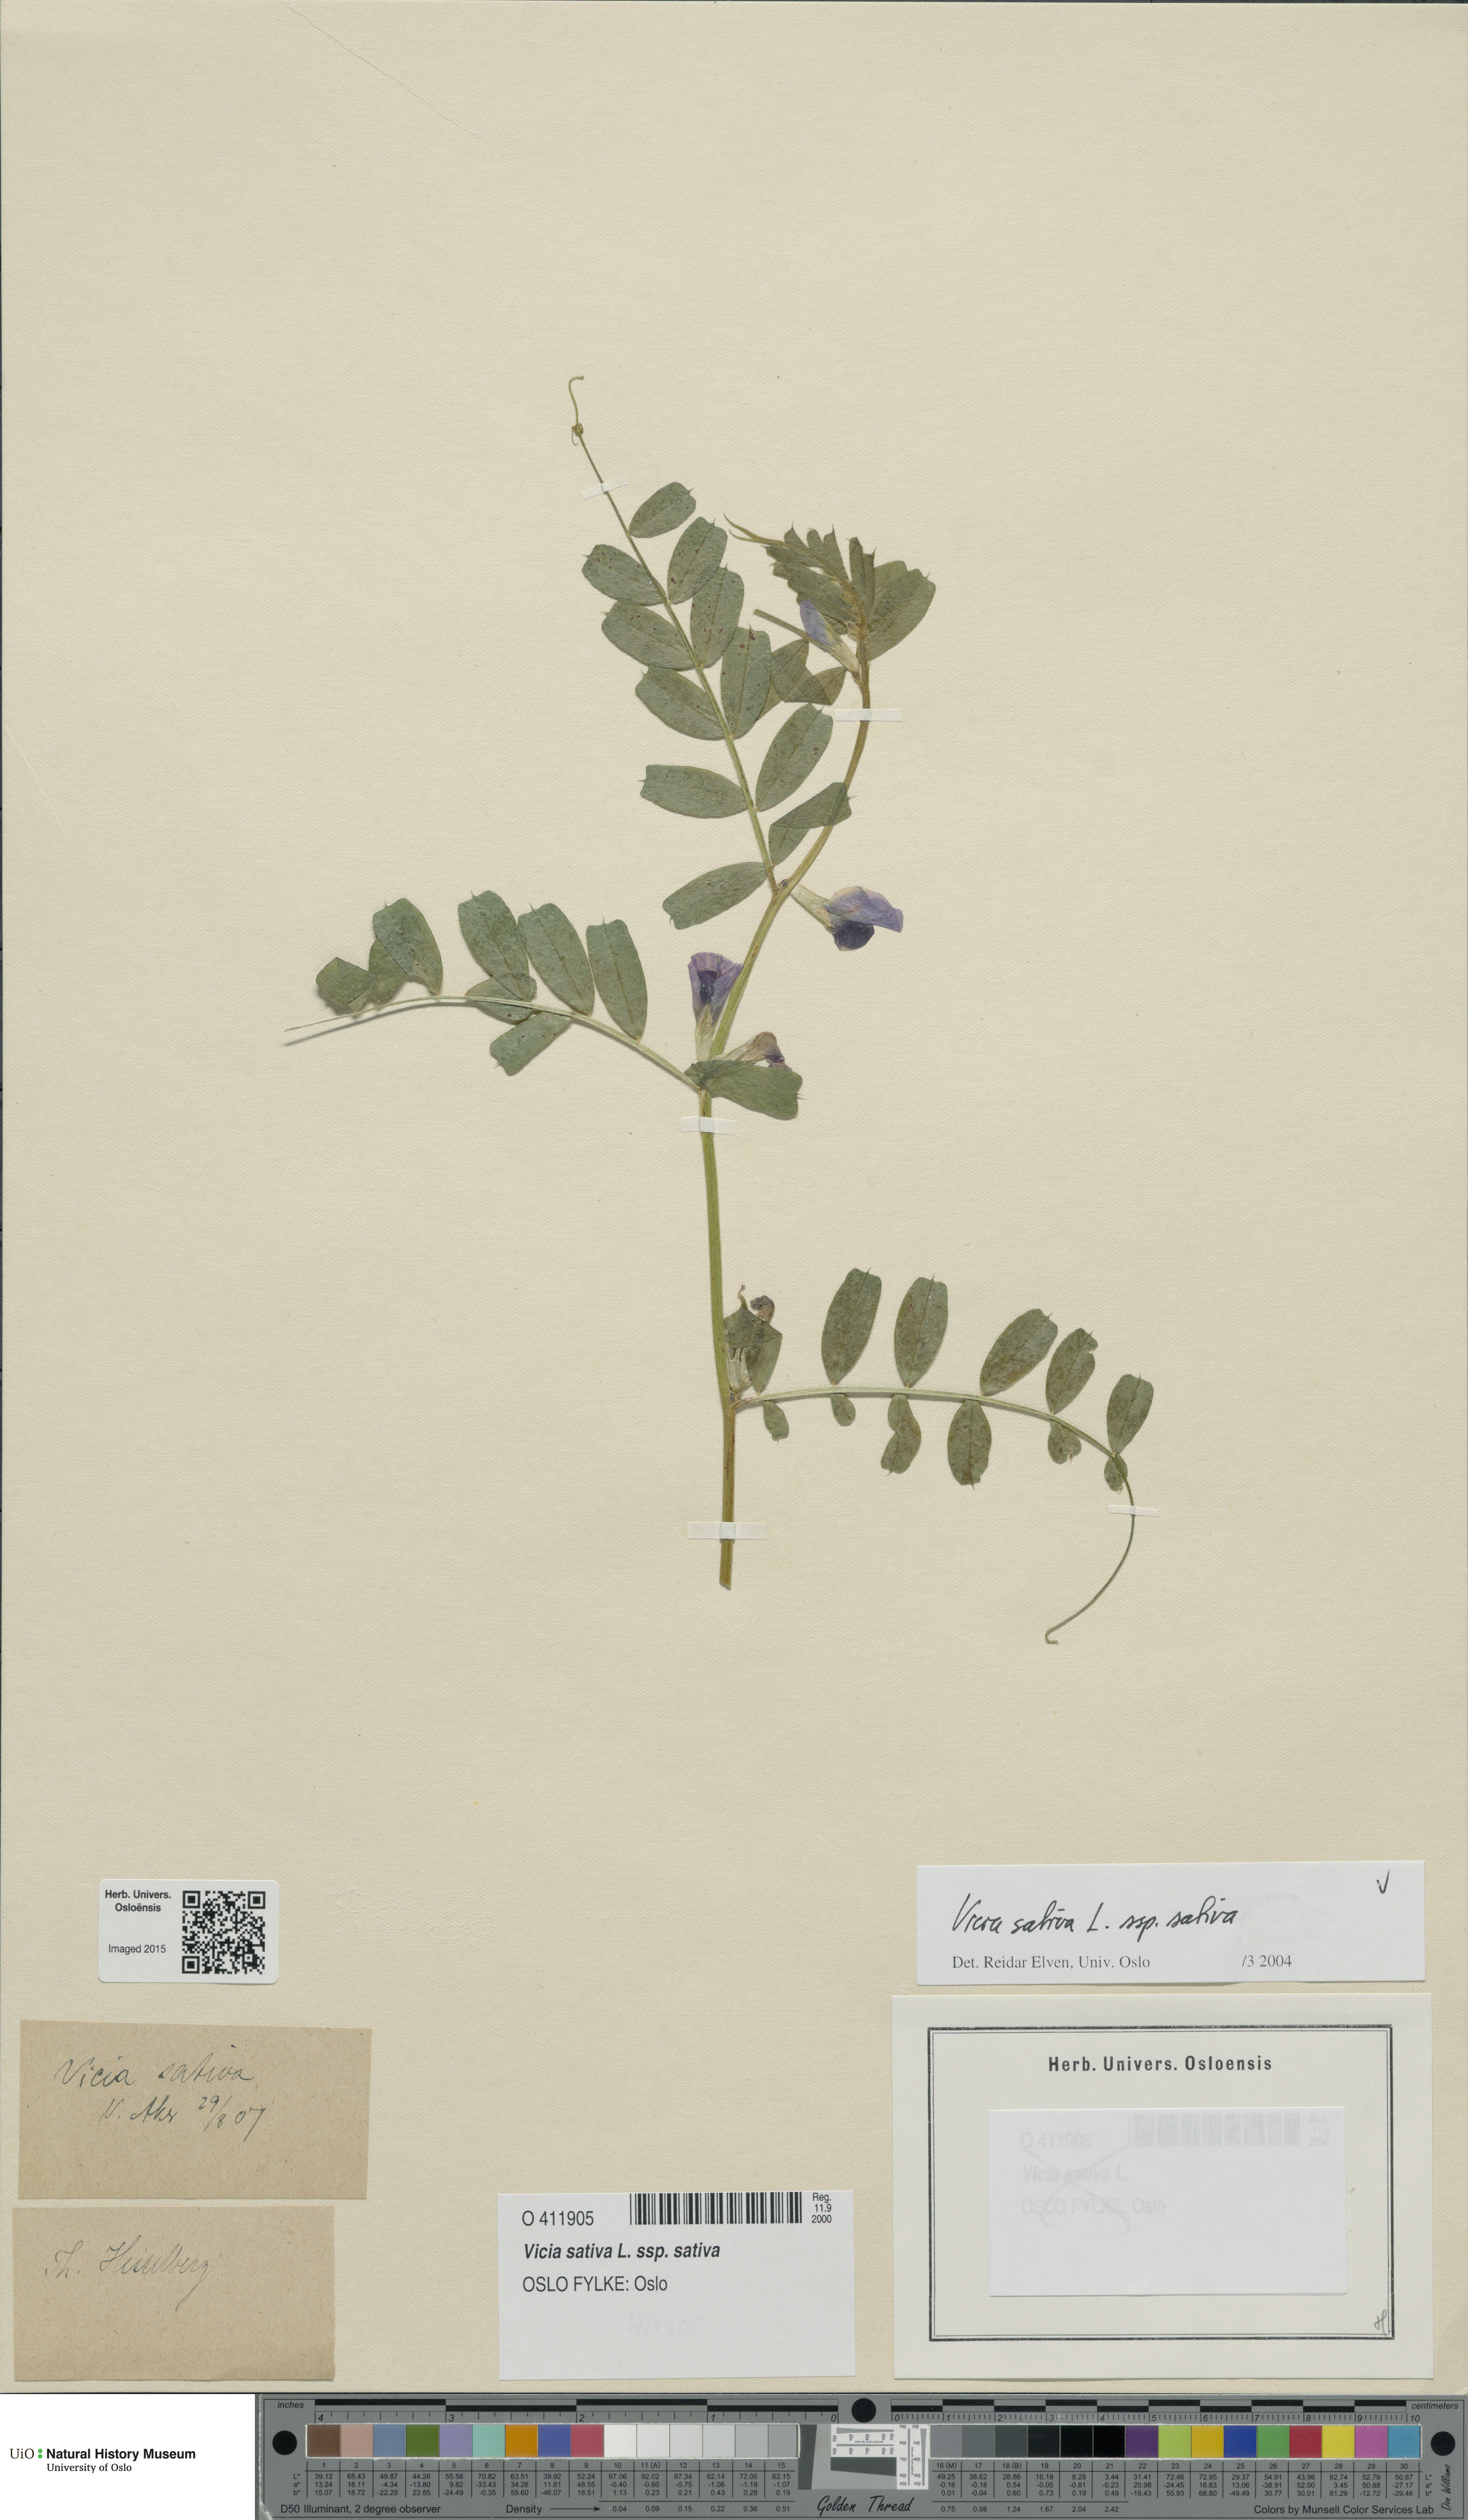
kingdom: Plantae
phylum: Tracheophyta
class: Magnoliopsida
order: Fabales
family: Fabaceae
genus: Vicia
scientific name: Vicia sativa
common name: Garden vetch
